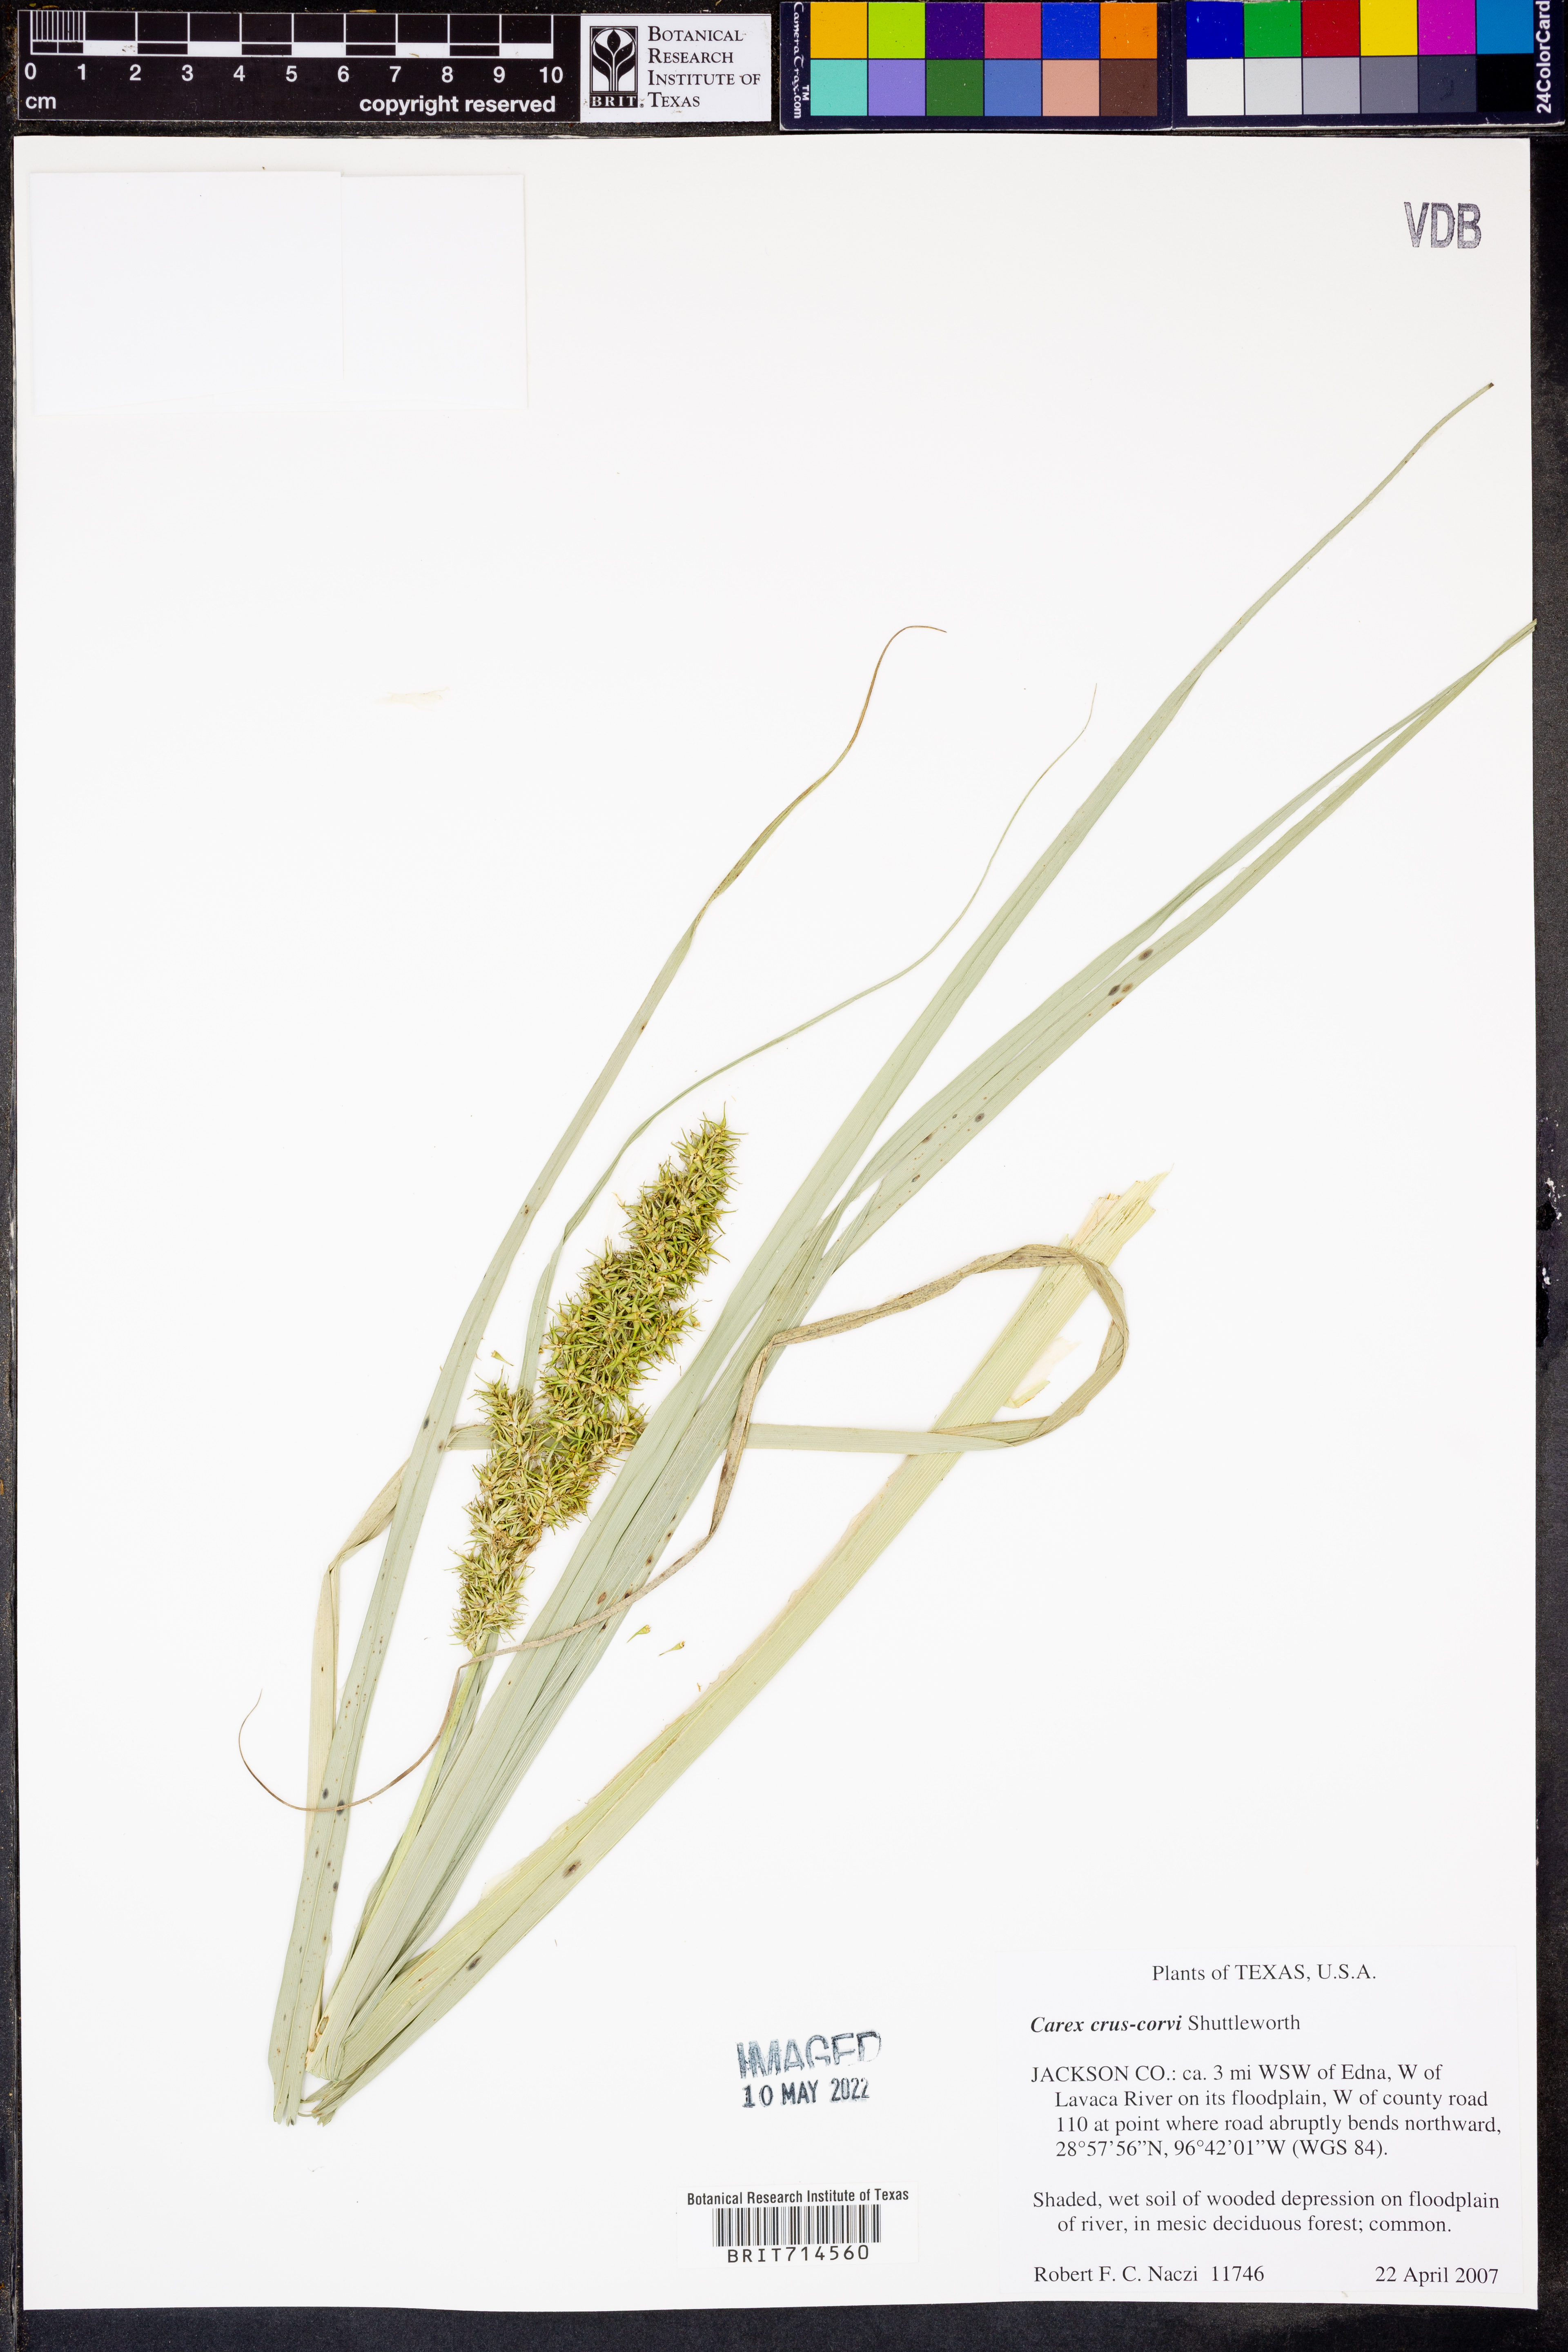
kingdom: Plantae
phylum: Tracheophyta
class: Liliopsida
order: Poales
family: Cyperaceae
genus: Carex
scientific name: Carex crus-corvi
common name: Crow-spur sedge
